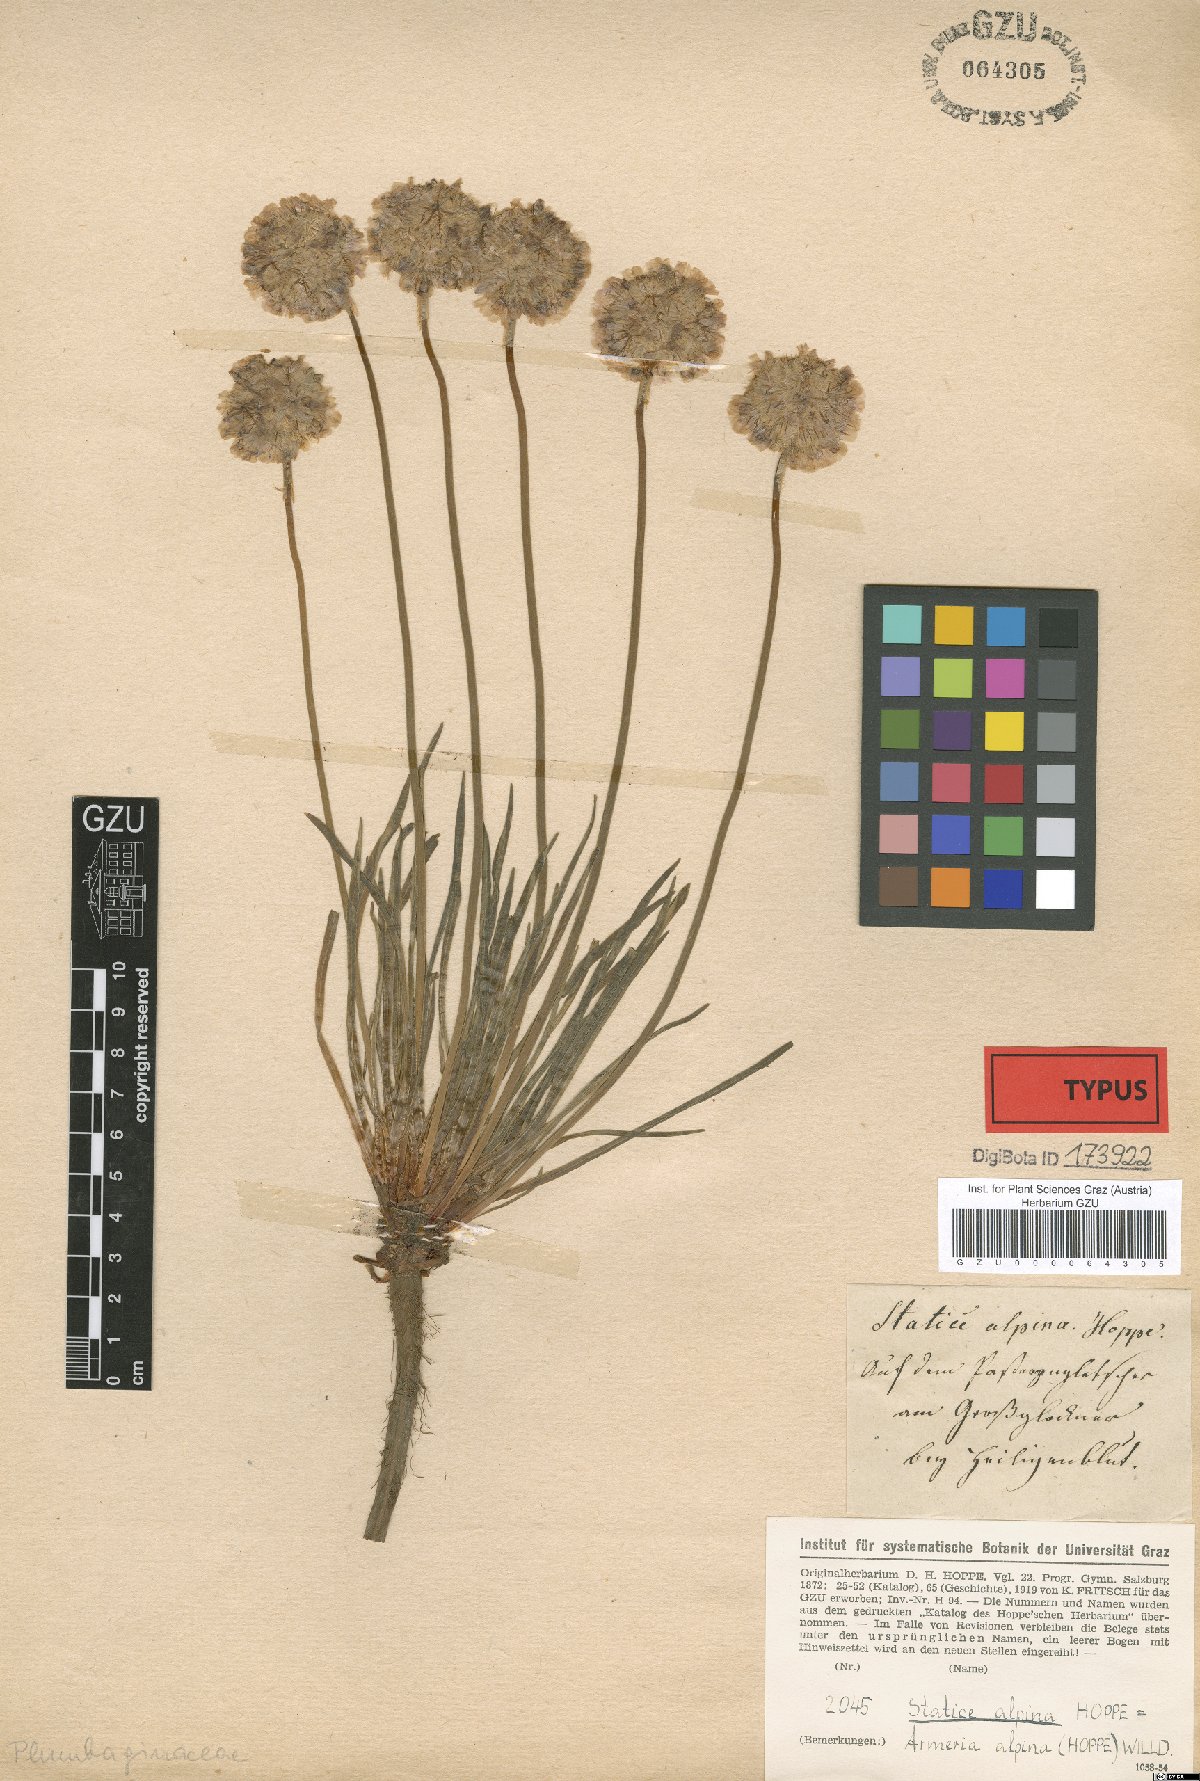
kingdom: Plantae
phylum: Tracheophyta
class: Magnoliopsida
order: Caryophyllales
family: Plumbaginaceae
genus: Armeria
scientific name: Armeria alpina
